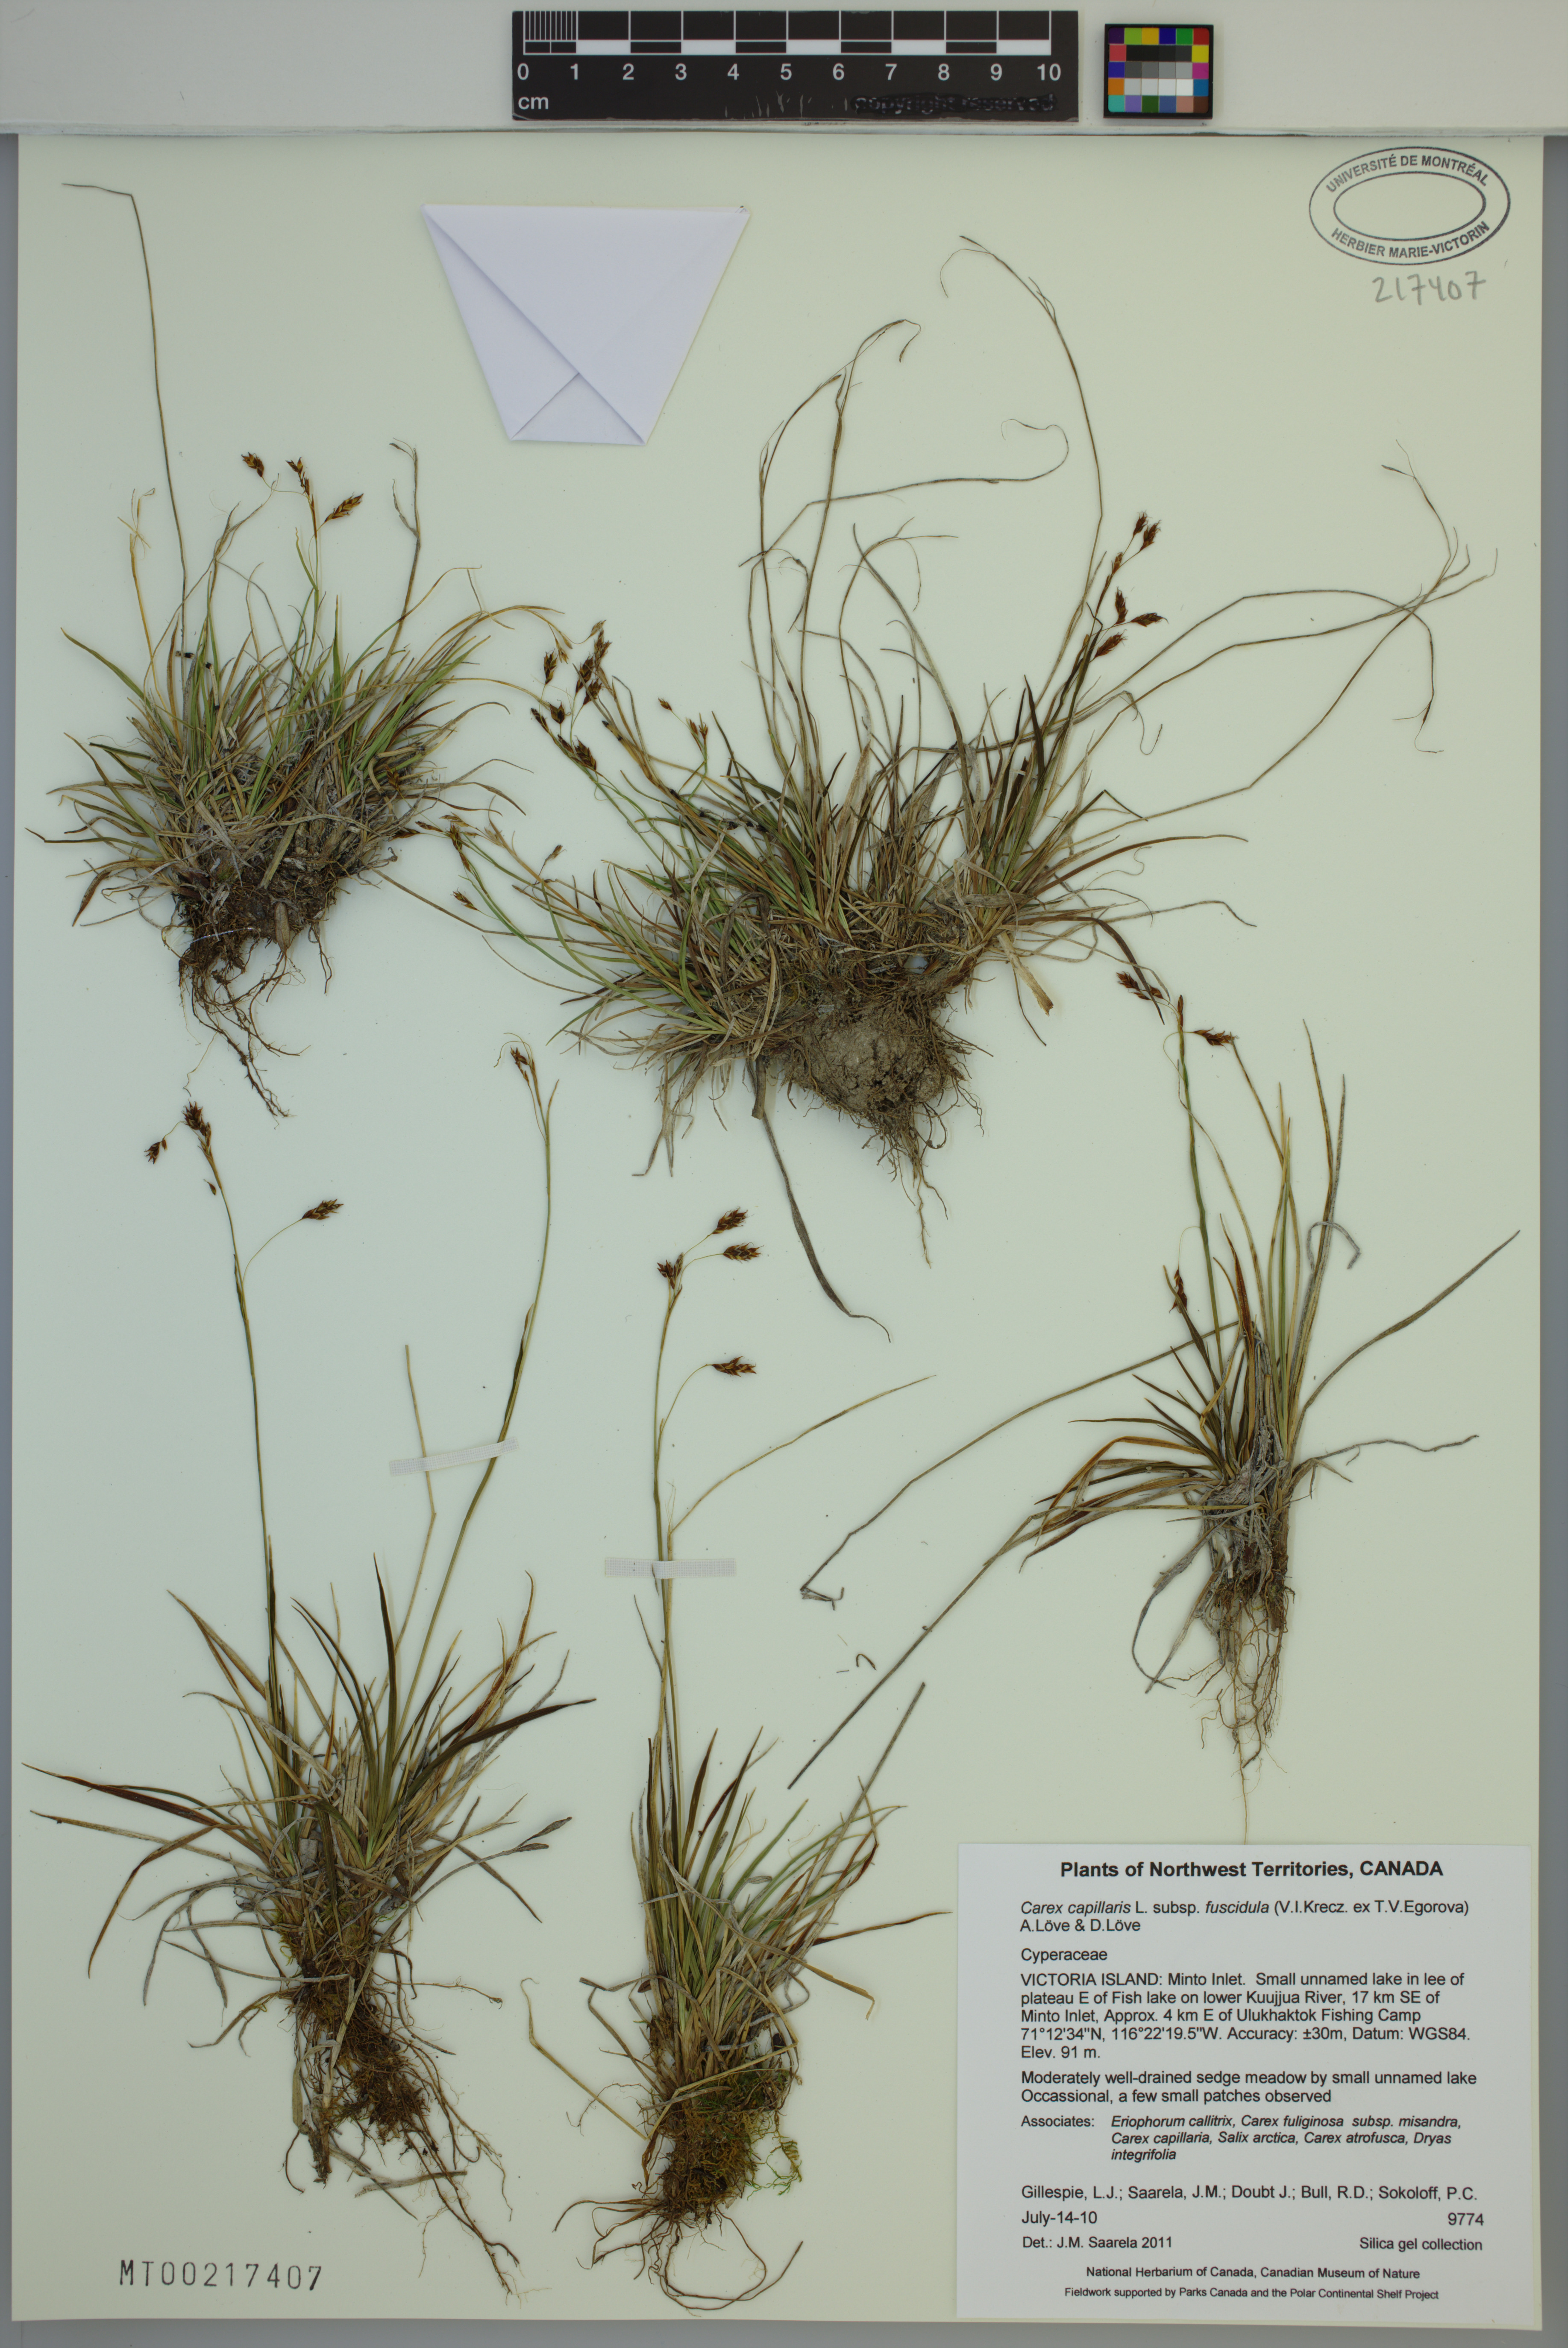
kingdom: Plantae
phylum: Tracheophyta
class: Liliopsida
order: Poales
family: Cyperaceae
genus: Carex
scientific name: Carex capillaris
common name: Hair sedge
